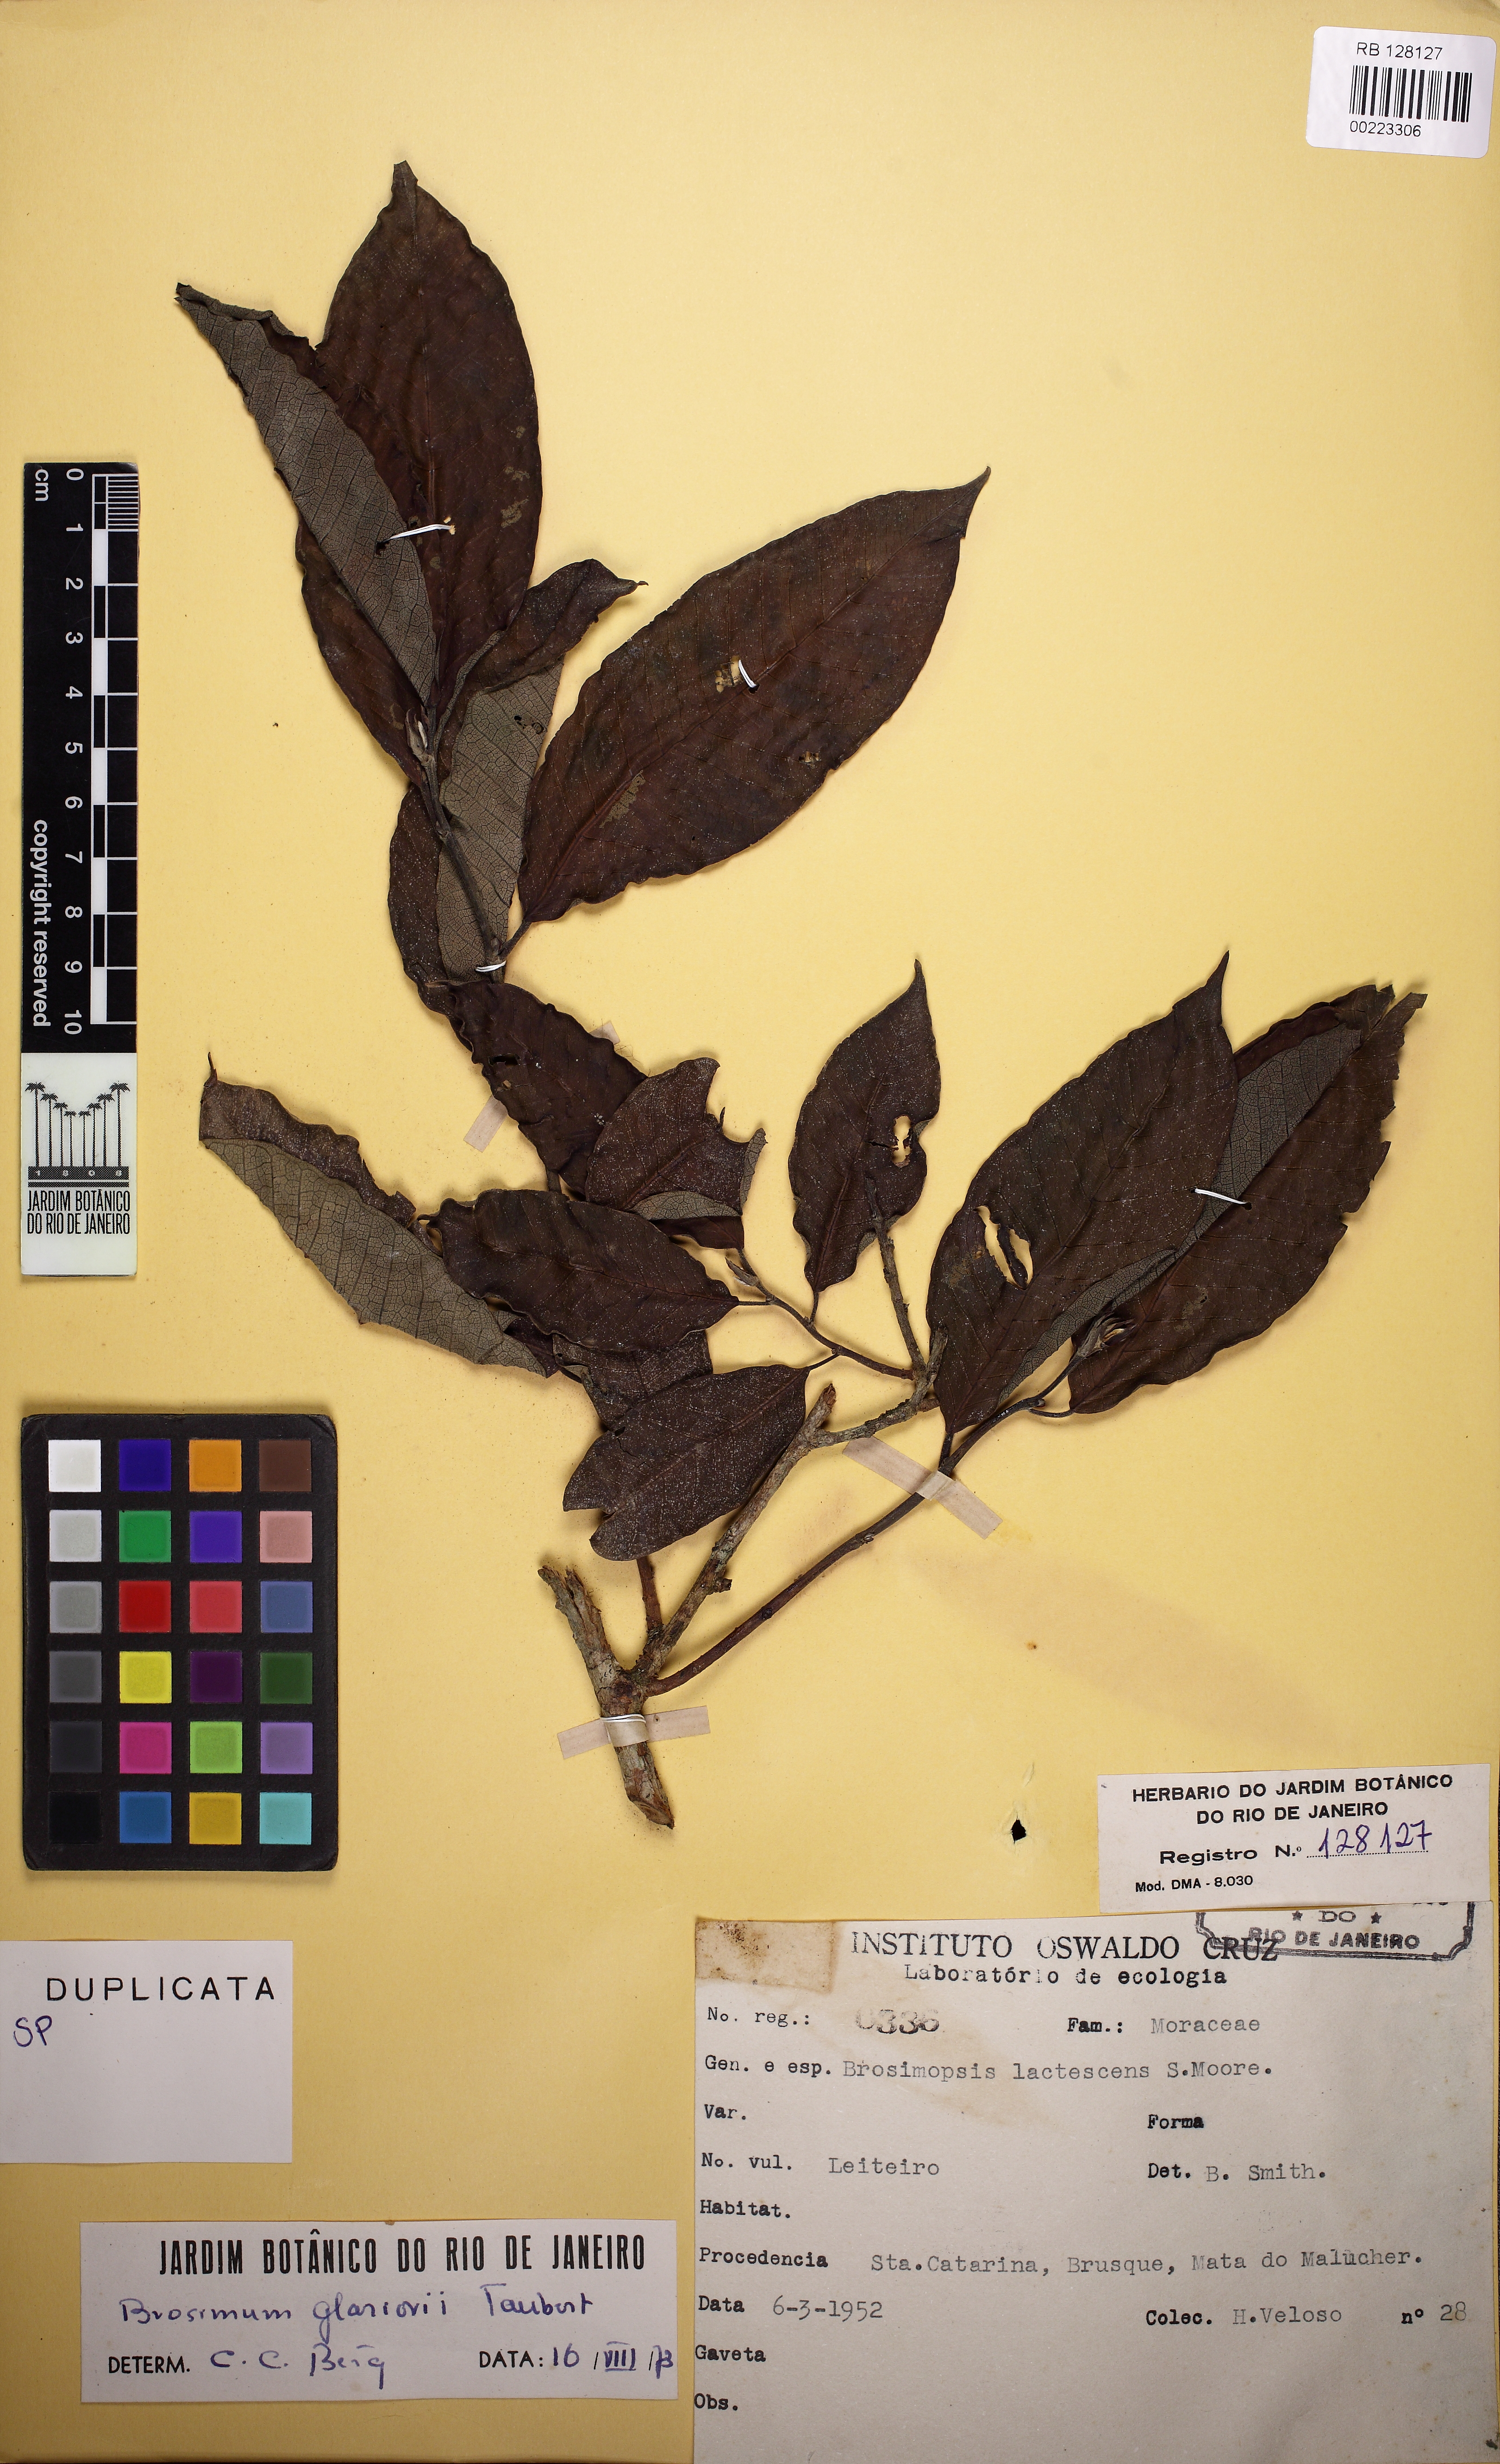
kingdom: Plantae
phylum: Tracheophyta
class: Magnoliopsida
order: Rosales
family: Moraceae
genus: Brosimum
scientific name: Brosimum glaziovii
